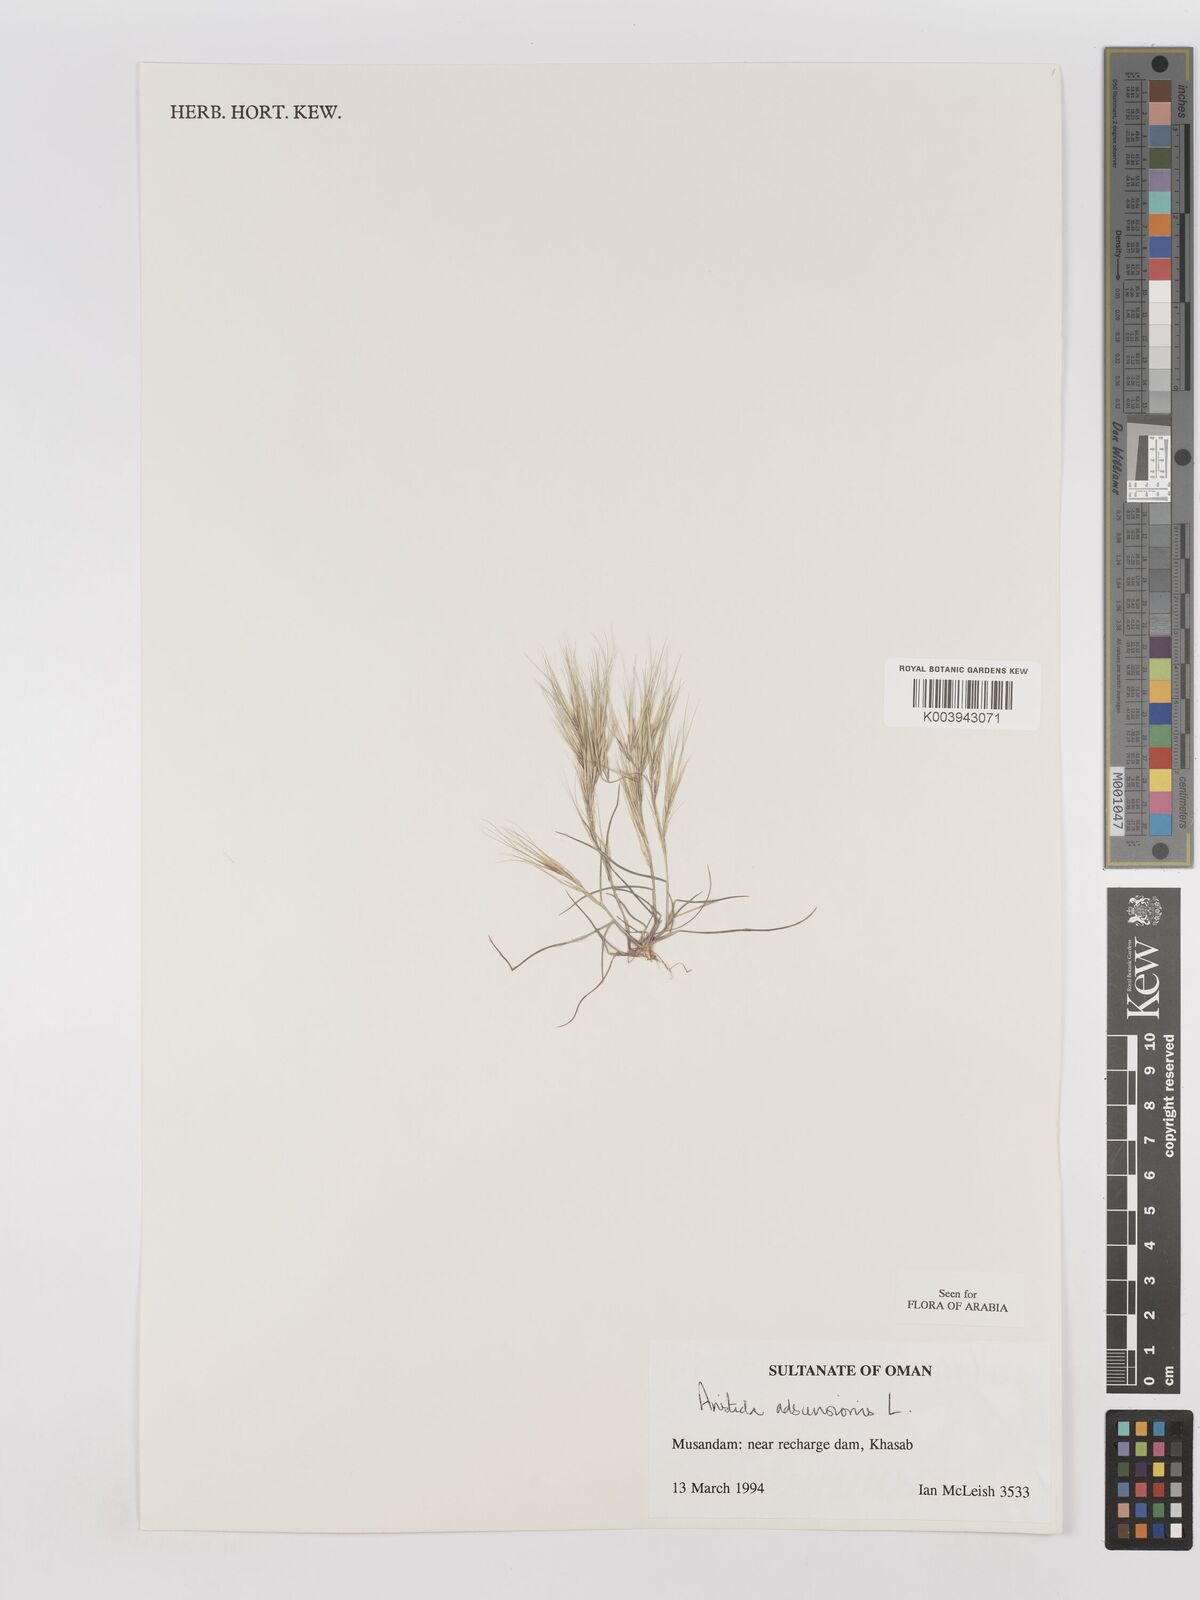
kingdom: Plantae
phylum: Tracheophyta
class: Liliopsida
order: Poales
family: Poaceae
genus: Aristida
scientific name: Aristida adscensionis
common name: Sixweeks threeawn
